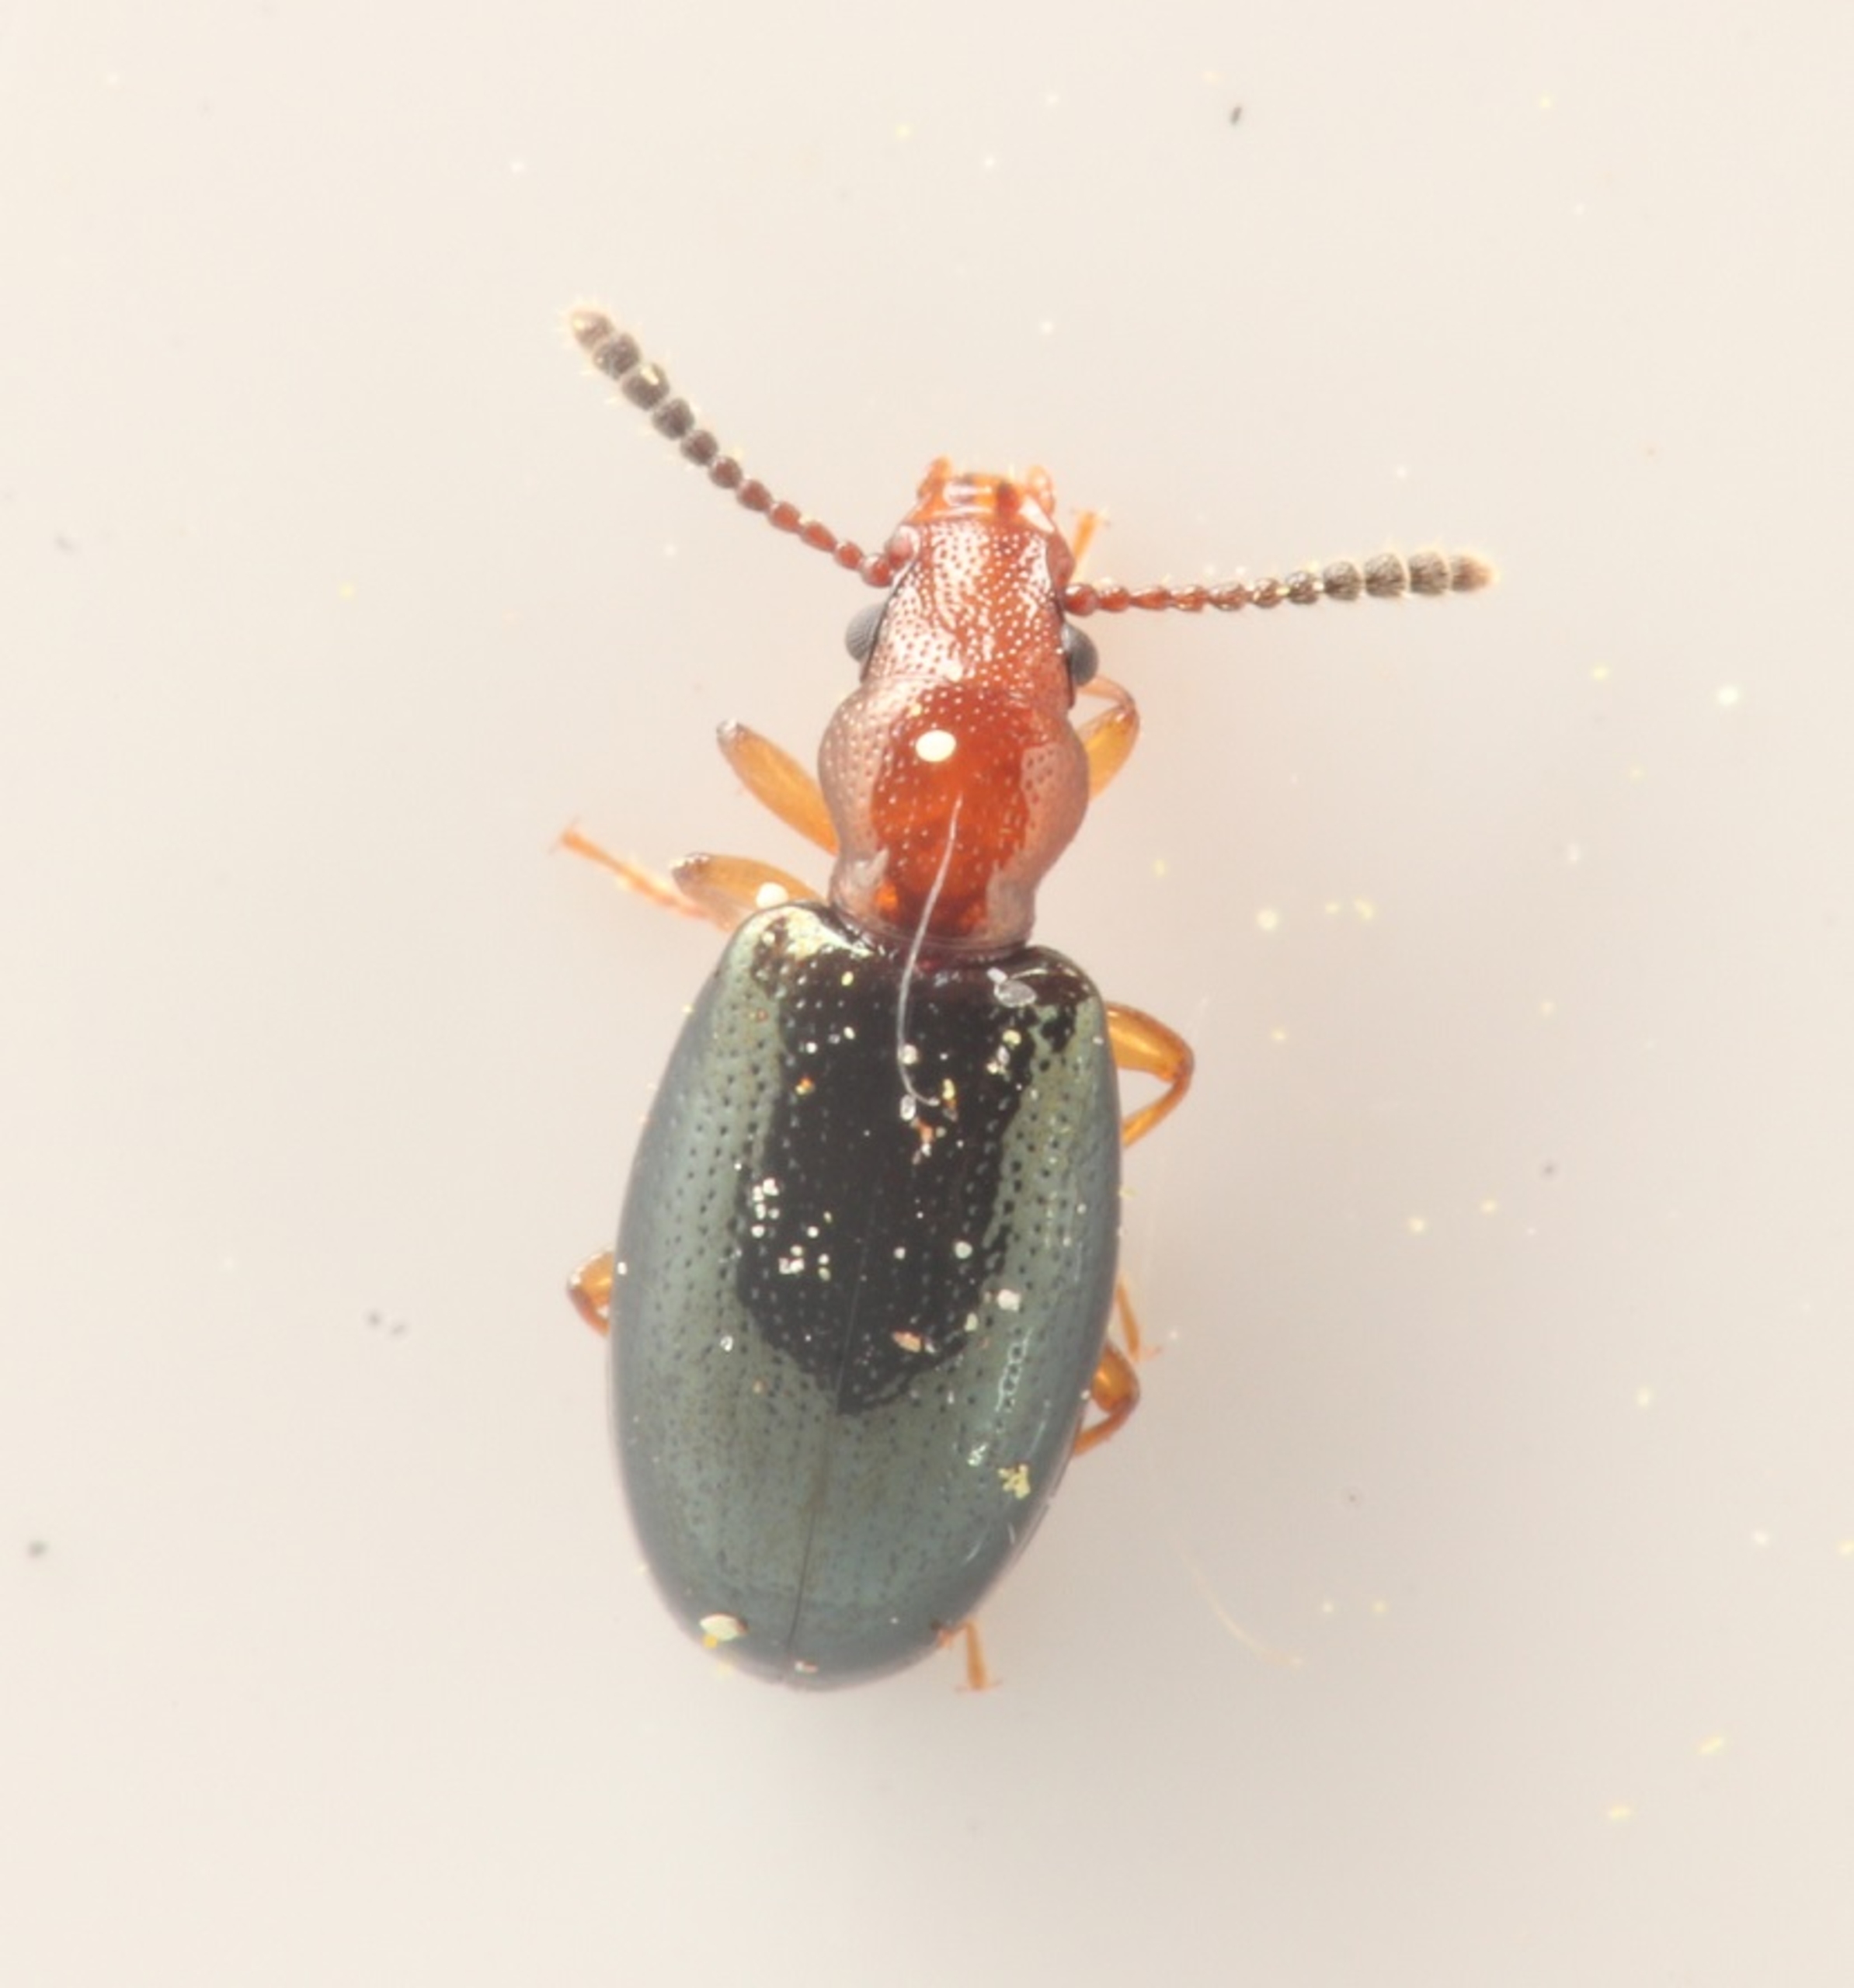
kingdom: Animalia
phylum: Arthropoda
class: Insecta
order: Coleoptera
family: Salpingidae
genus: Vincenzellus
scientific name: Vincenzellus ruficollis
